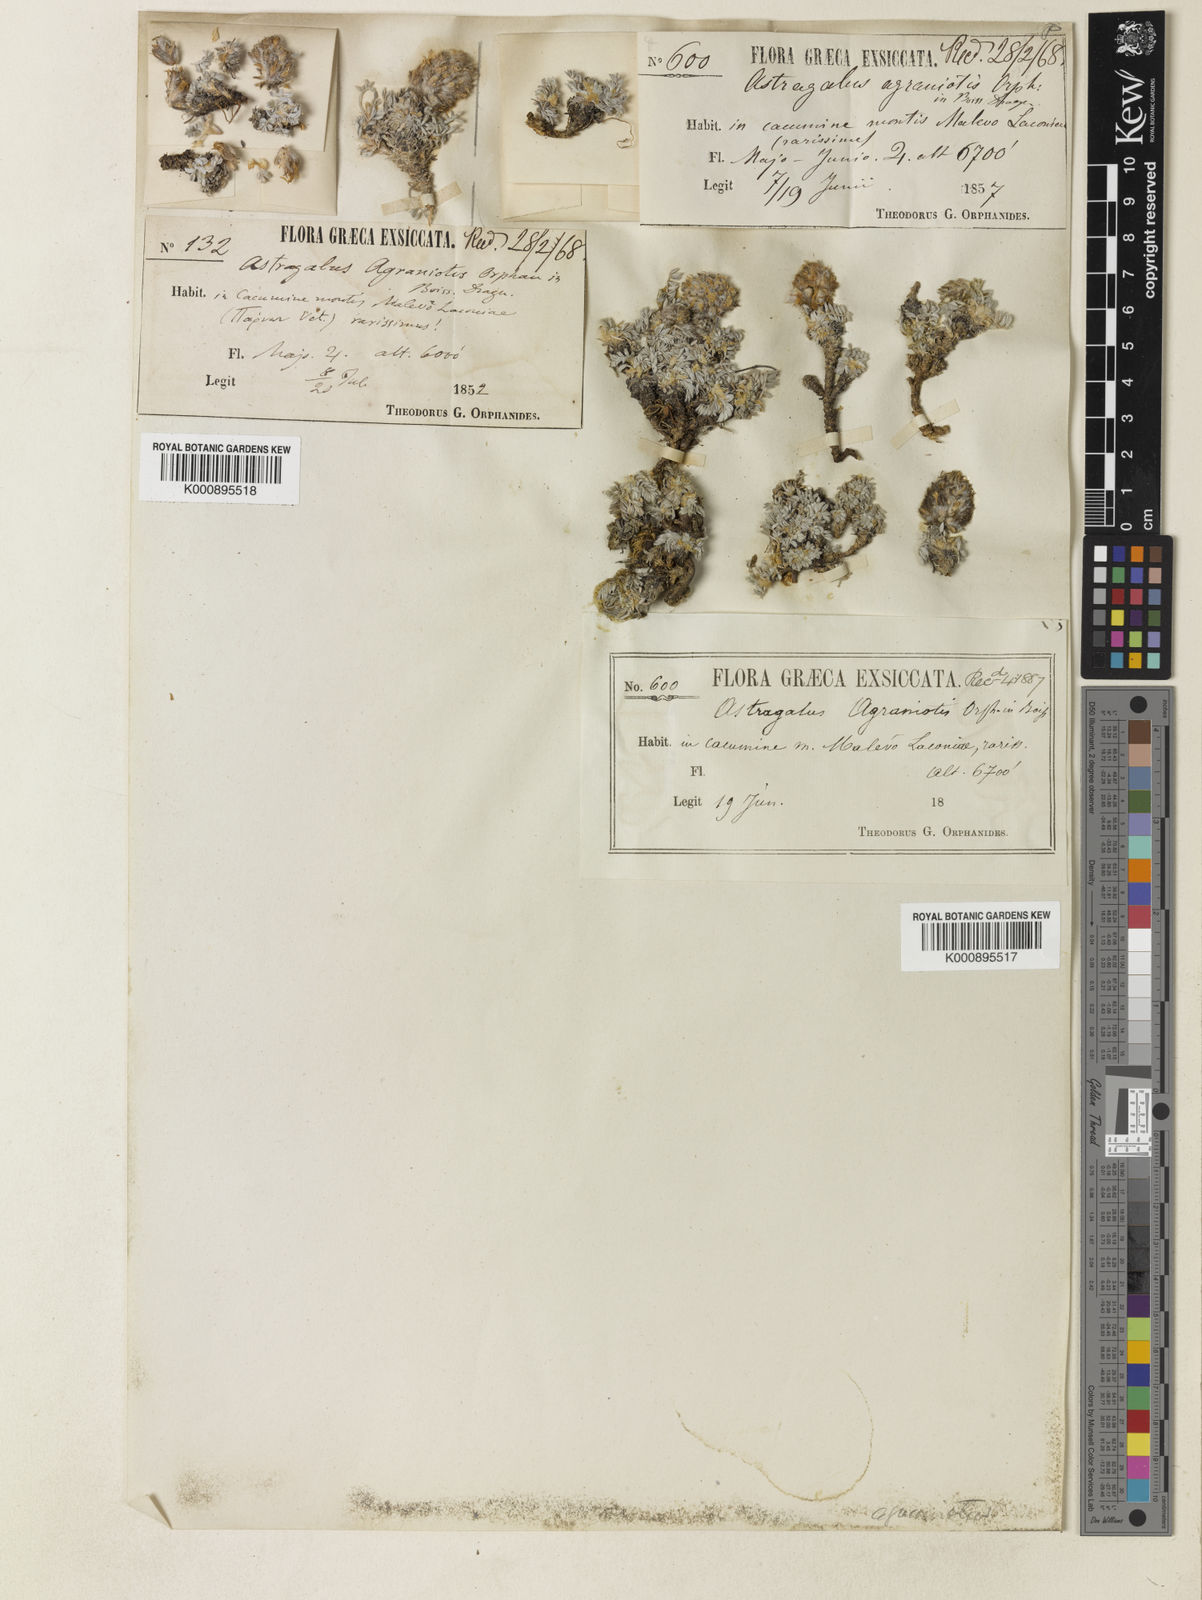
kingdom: Plantae
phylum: Tracheophyta
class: Magnoliopsida
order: Fabales
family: Fabaceae
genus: Astragalus
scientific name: Astragalus
